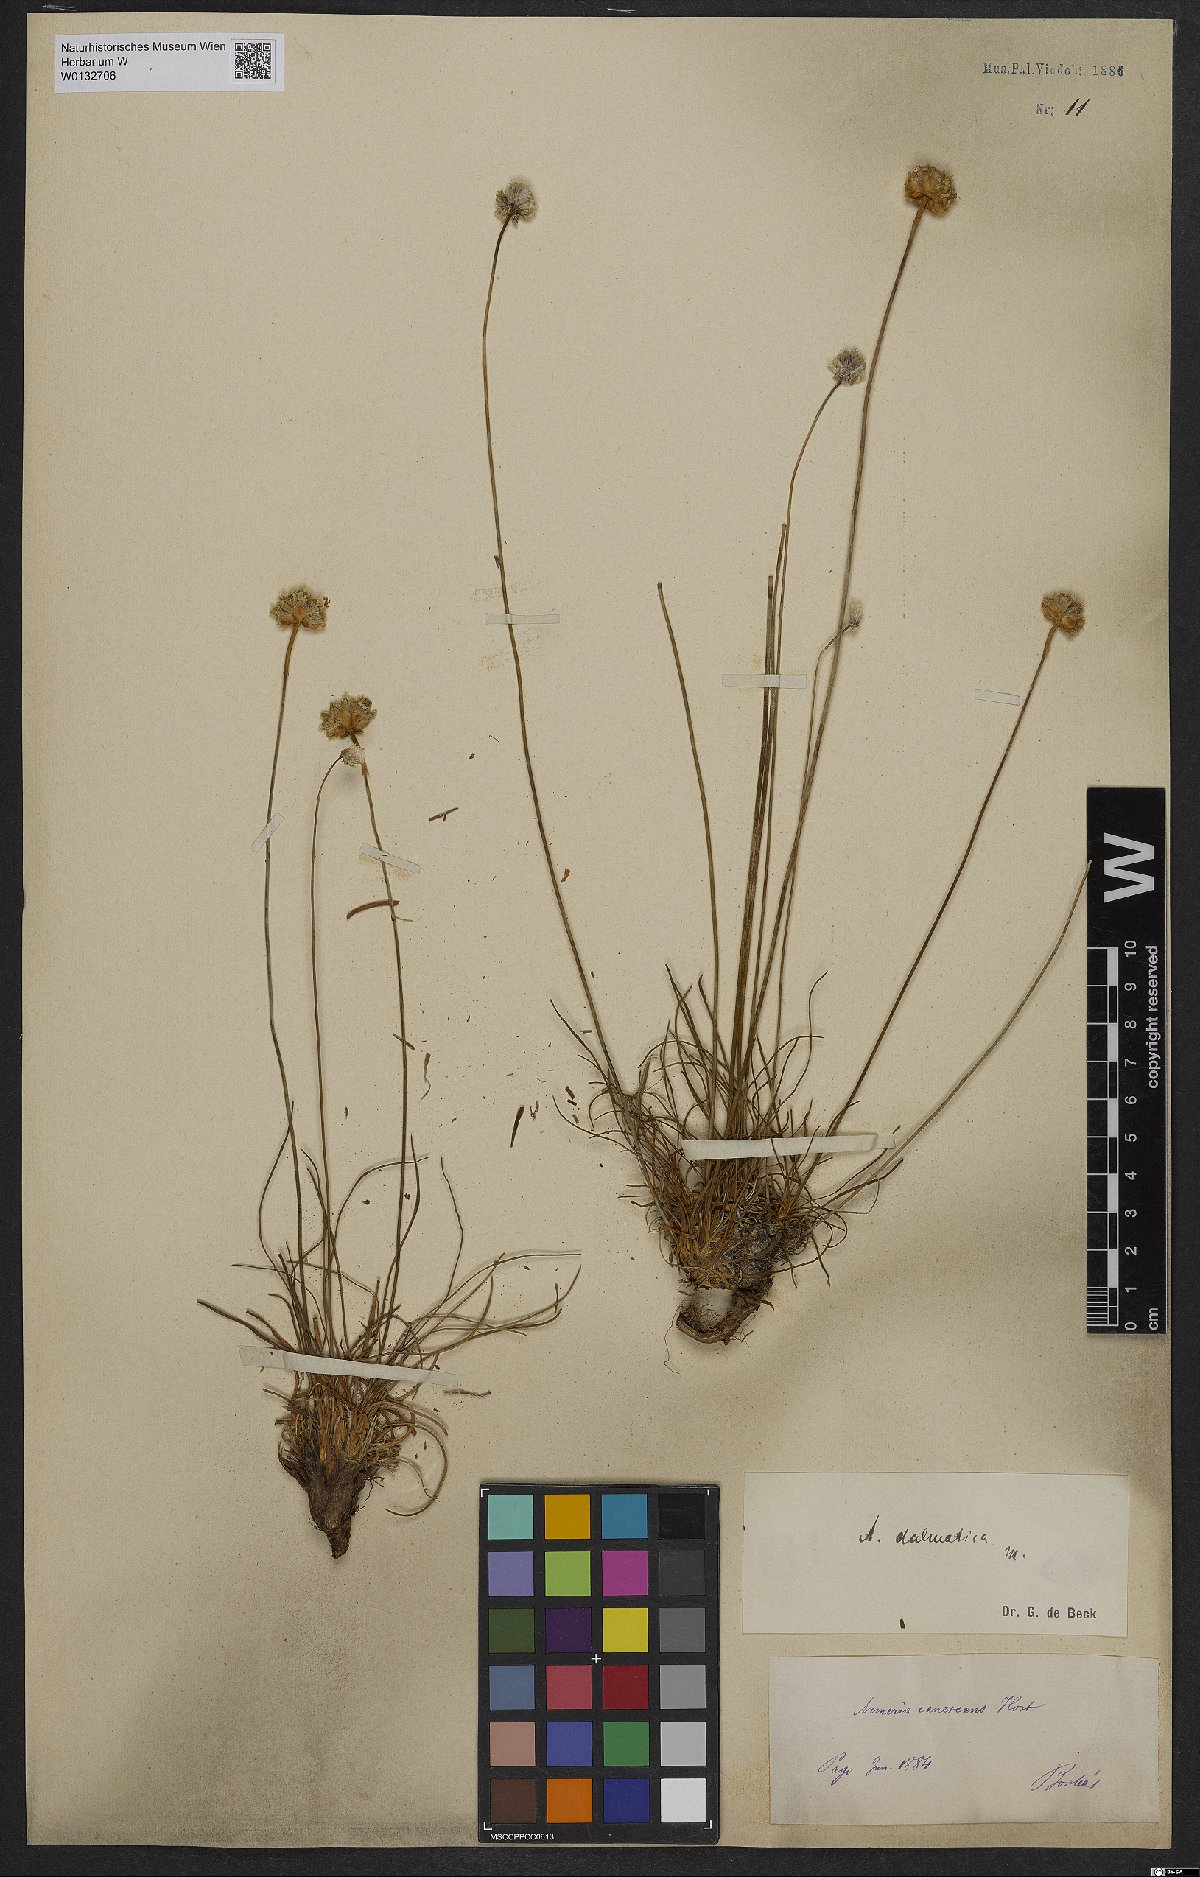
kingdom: Plantae
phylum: Tracheophyta
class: Magnoliopsida
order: Caryophyllales
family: Plumbaginaceae
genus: Armeria
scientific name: Armeria canescens
